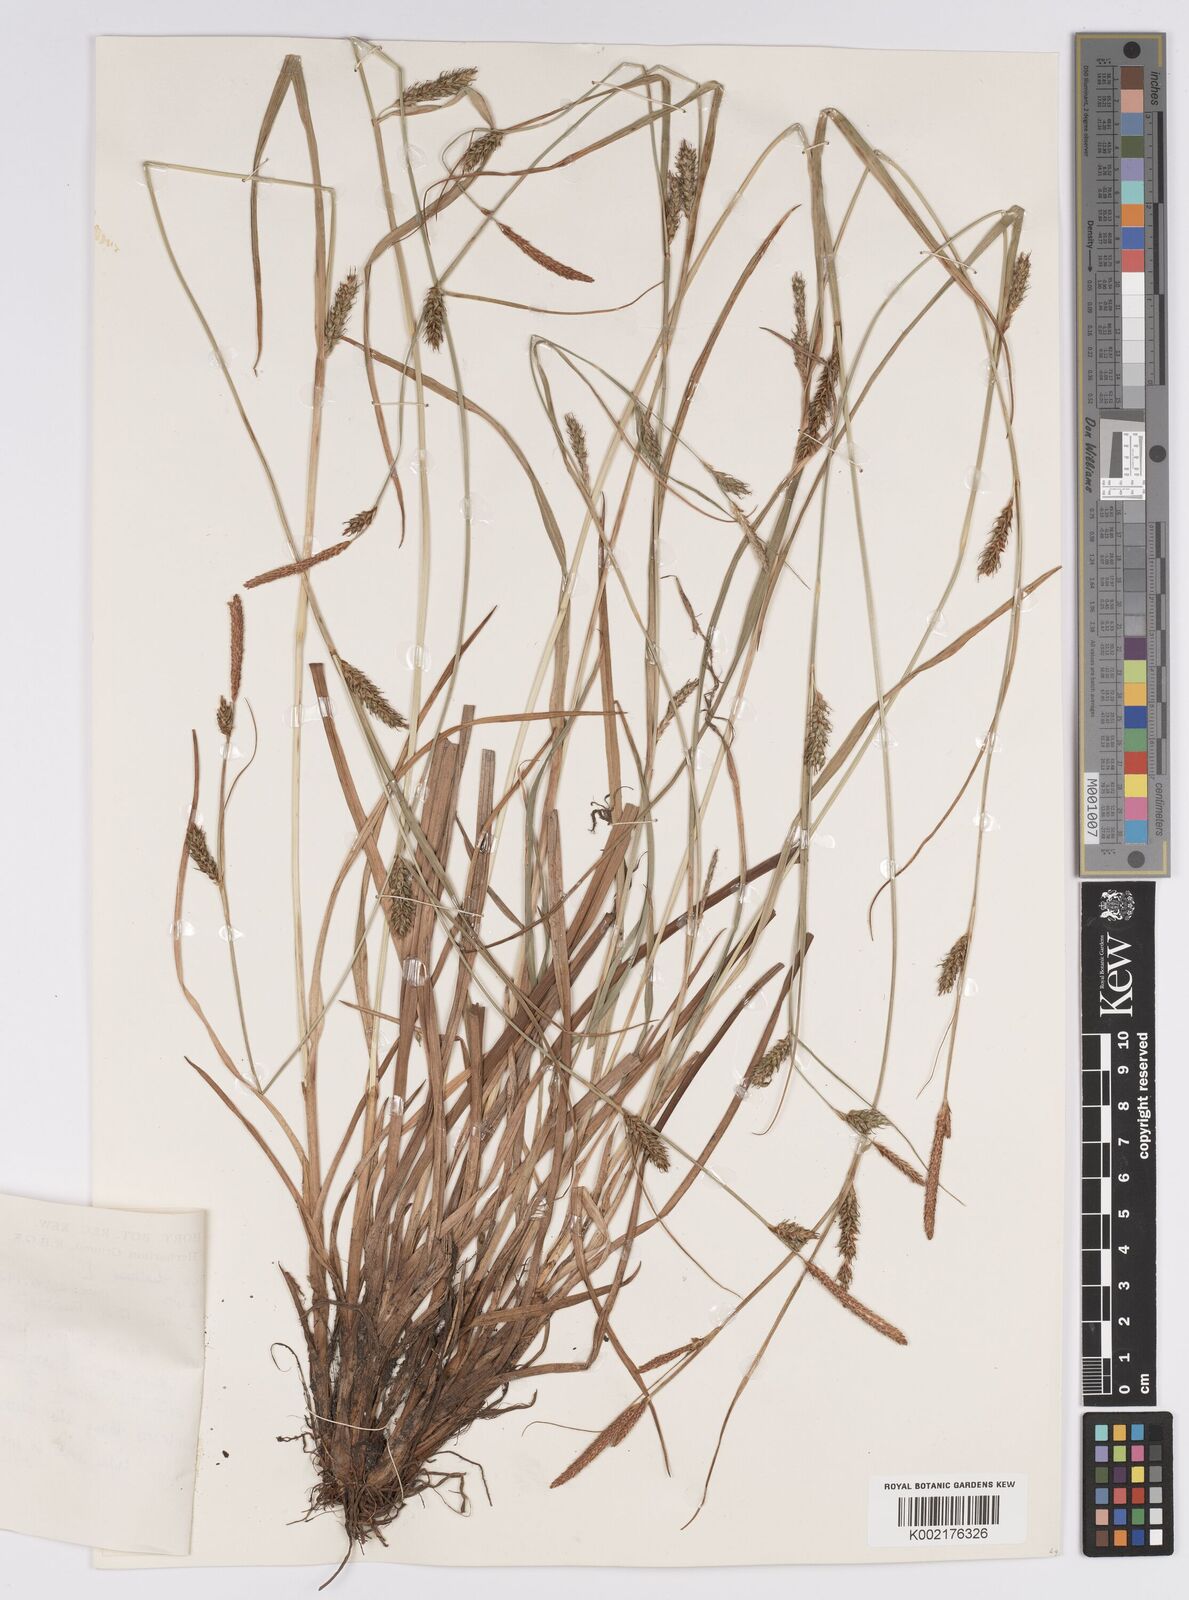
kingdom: Plantae
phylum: Tracheophyta
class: Liliopsida
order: Poales
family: Cyperaceae
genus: Carex
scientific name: Carex distans
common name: Distant sedge
